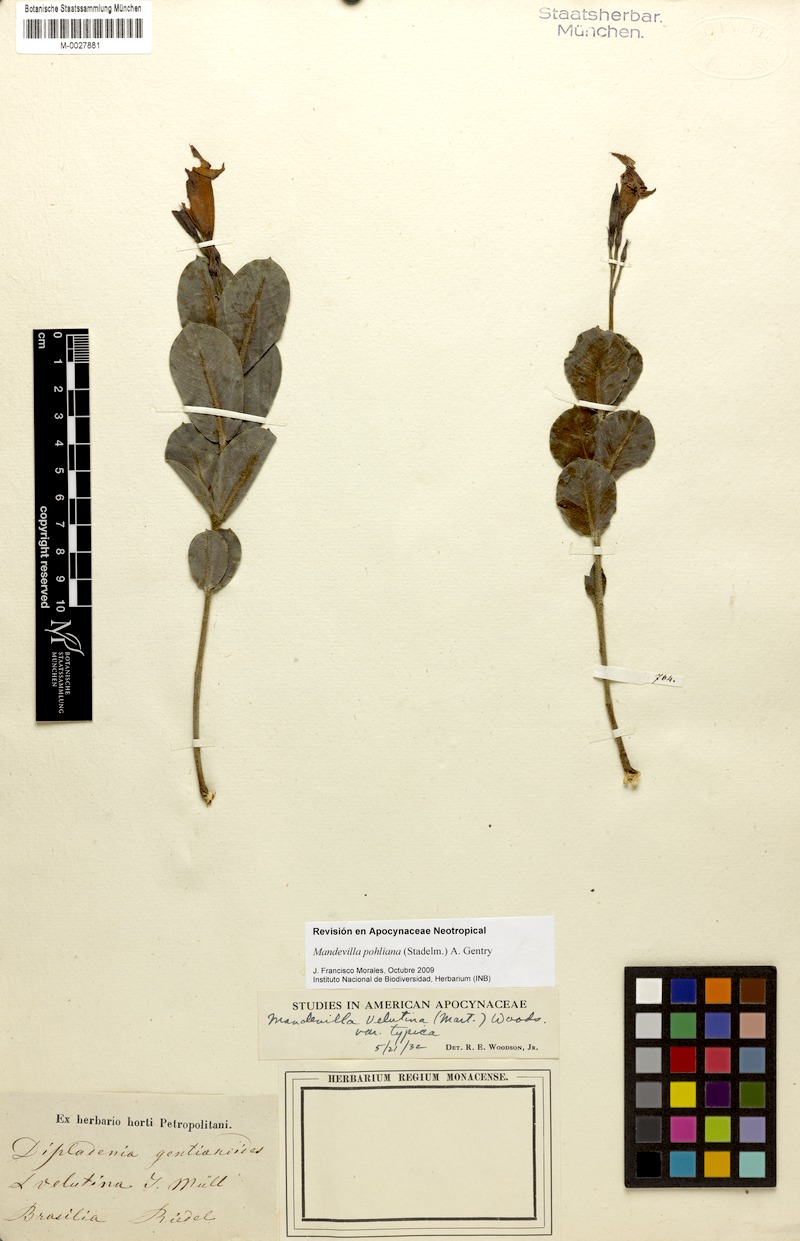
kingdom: Plantae
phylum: Tracheophyta
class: Magnoliopsida
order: Gentianales
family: Apocynaceae
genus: Mandevilla
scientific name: Mandevilla pohliana
